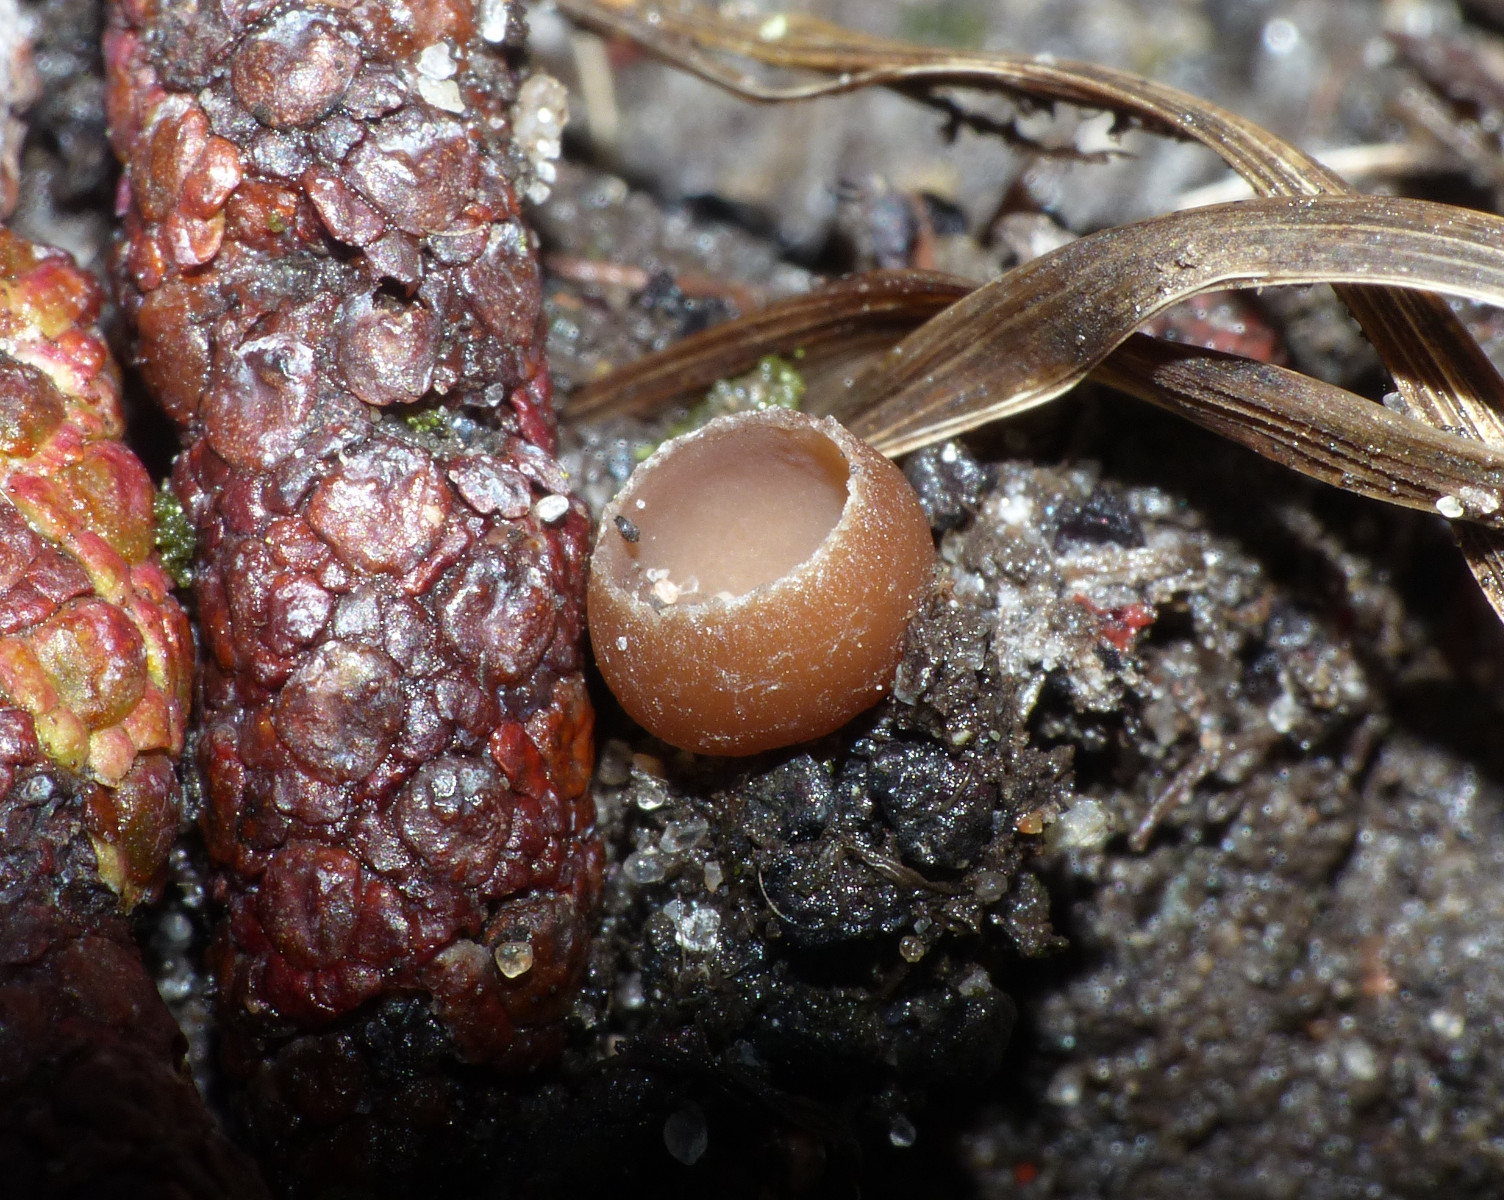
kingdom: Fungi
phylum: Ascomycota
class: Leotiomycetes
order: Helotiales
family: Sclerotiniaceae
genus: Ciboria
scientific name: Ciboria amentacea
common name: ellerakle-knoldskive
